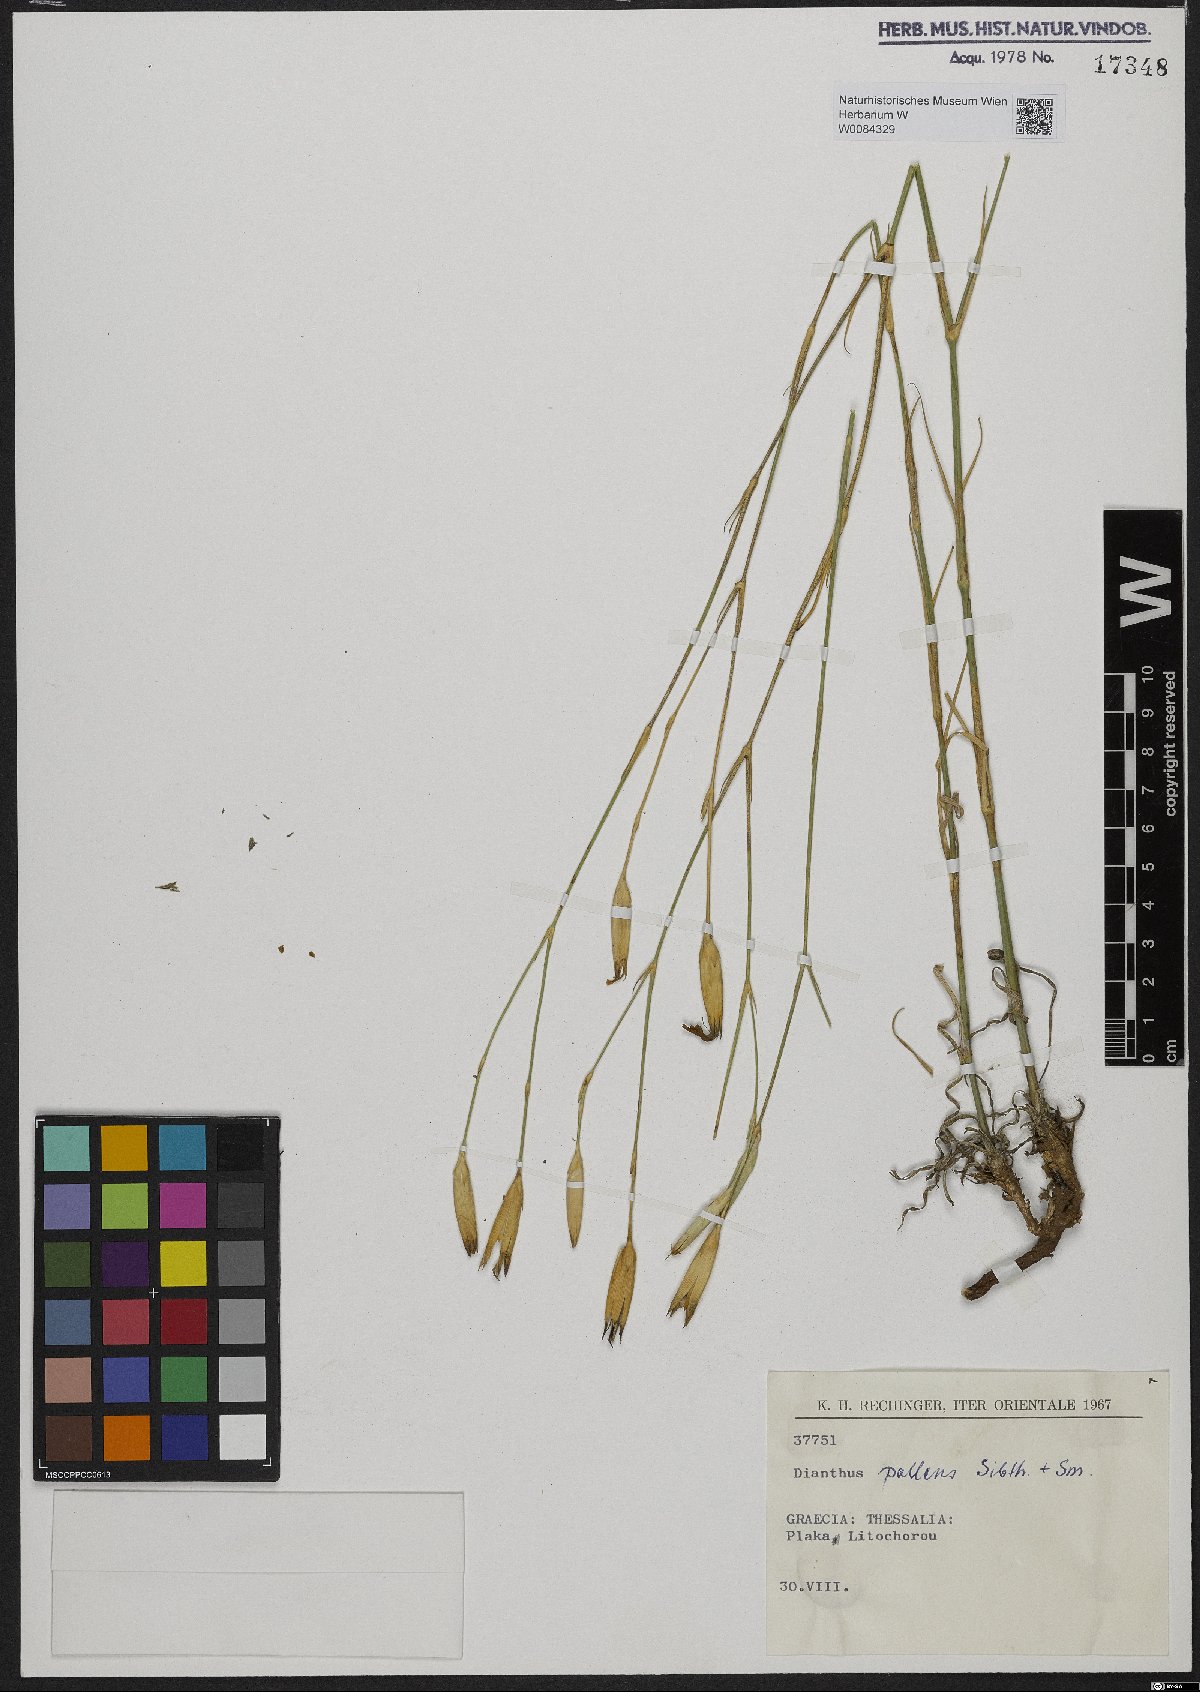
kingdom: Plantae
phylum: Tracheophyta
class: Magnoliopsida
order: Caryophyllales
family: Caryophyllaceae
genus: Dianthus
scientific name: Dianthus monadelphus
